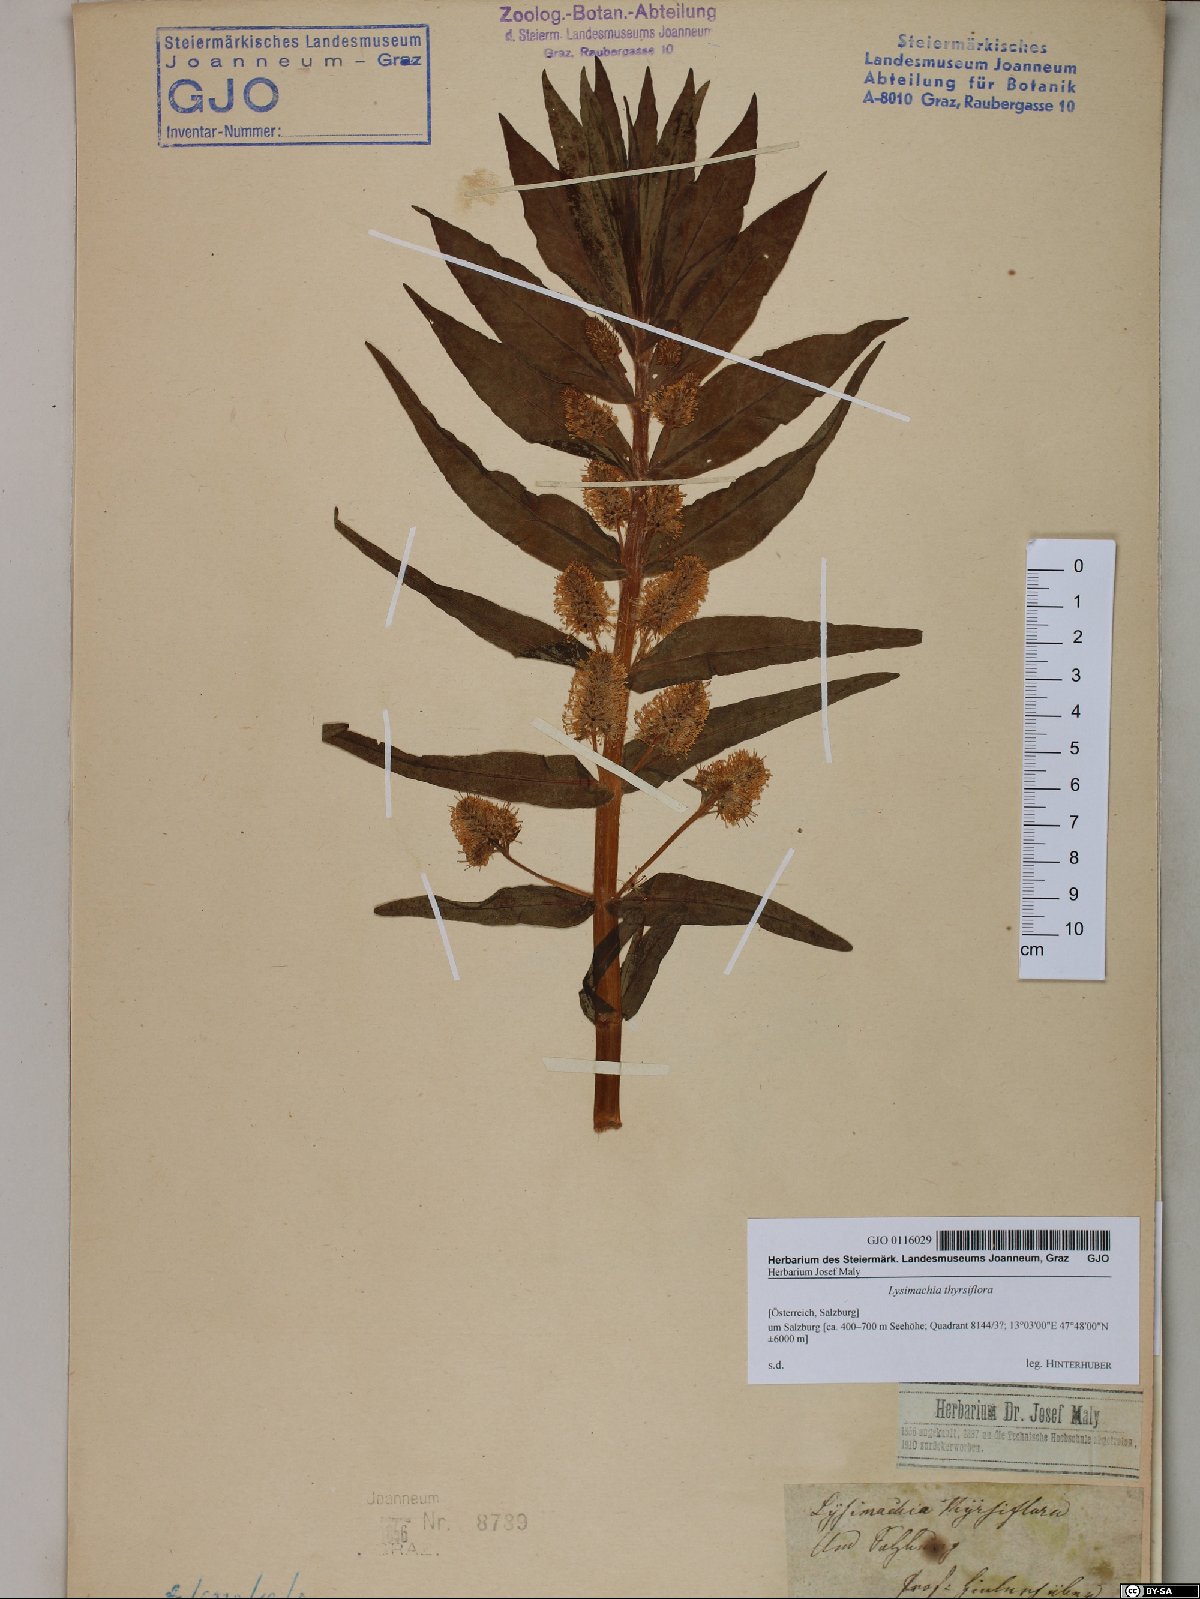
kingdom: Plantae
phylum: Tracheophyta
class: Magnoliopsida
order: Ericales
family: Primulaceae
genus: Lysimachia
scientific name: Lysimachia thyrsiflora
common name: Tufted loosestrife
